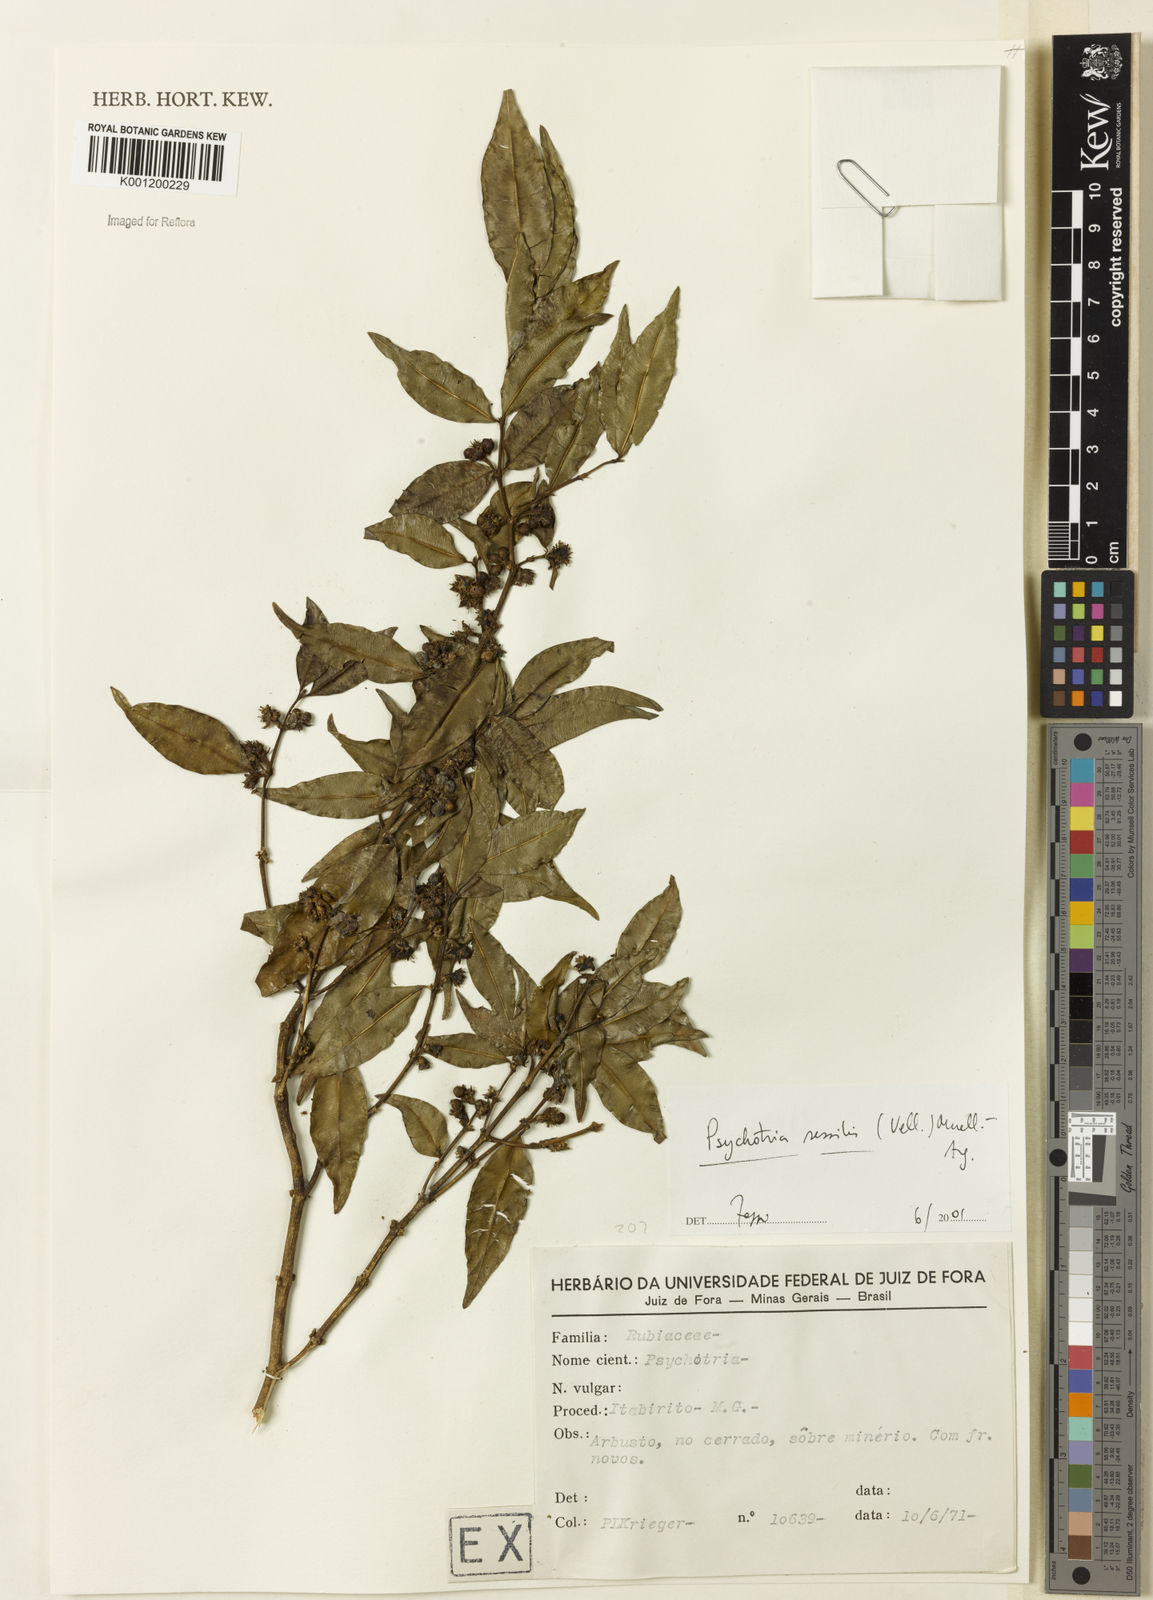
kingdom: Plantae
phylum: Tracheophyta
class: Magnoliopsida
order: Gentianales
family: Rubiaceae
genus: Rudgea
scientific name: Rudgea sessilis
